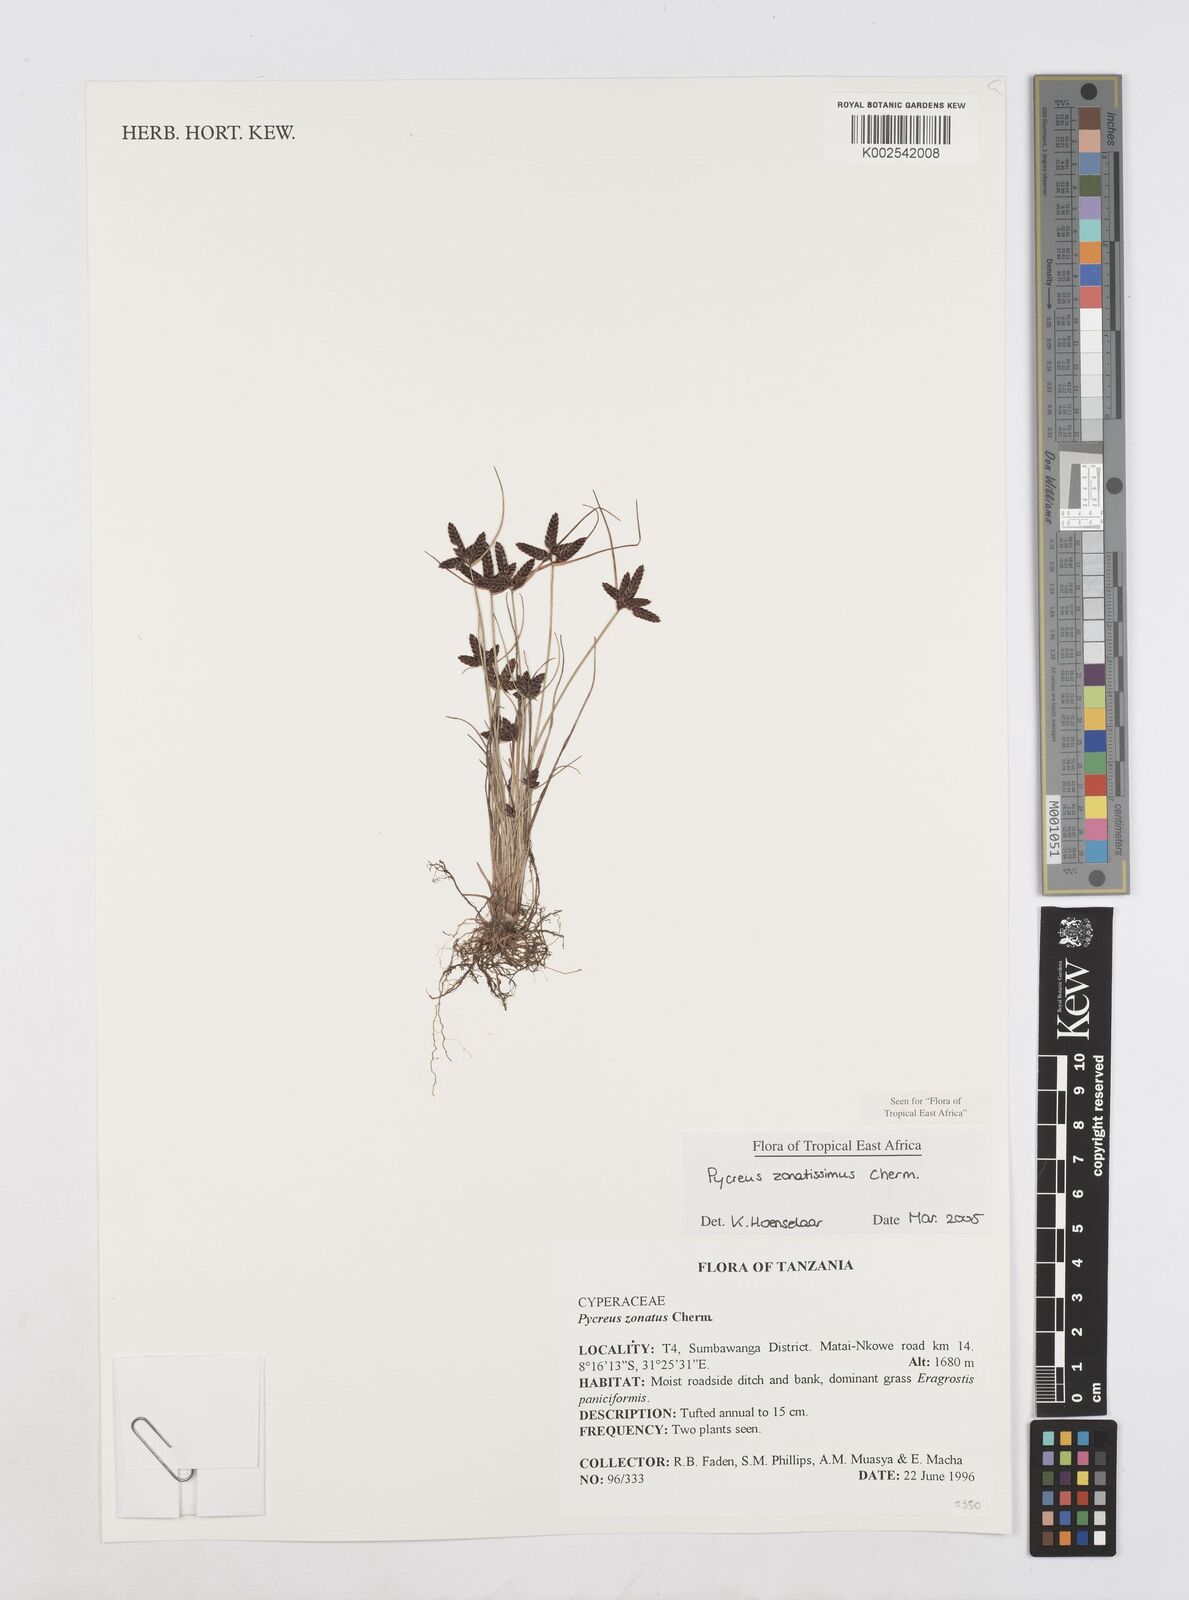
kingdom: Plantae
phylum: Tracheophyta
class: Liliopsida
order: Poales
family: Cyperaceae
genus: Cyperus
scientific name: Cyperus zonatissimus
